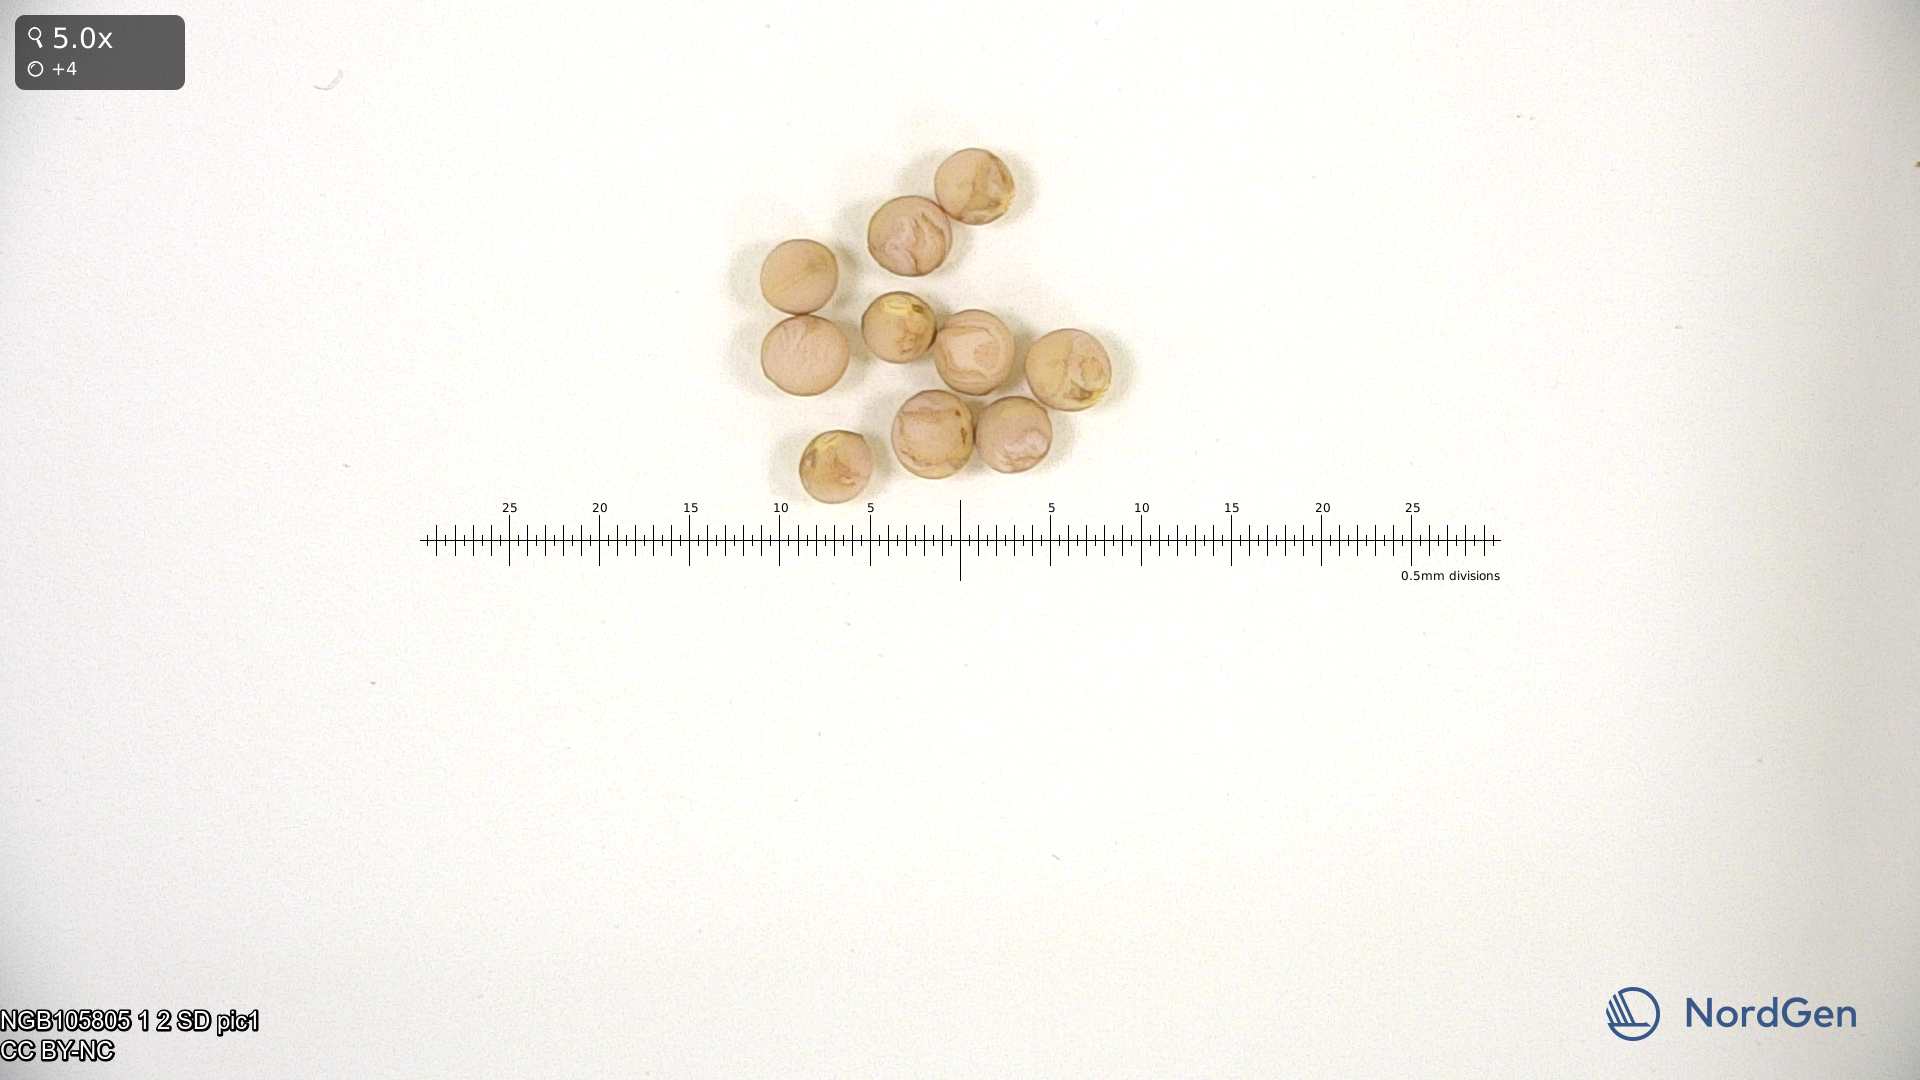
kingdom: Plantae
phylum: Tracheophyta
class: Magnoliopsida
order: Fabales
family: Fabaceae
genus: Lathyrus
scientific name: Lathyrus oleraceus
